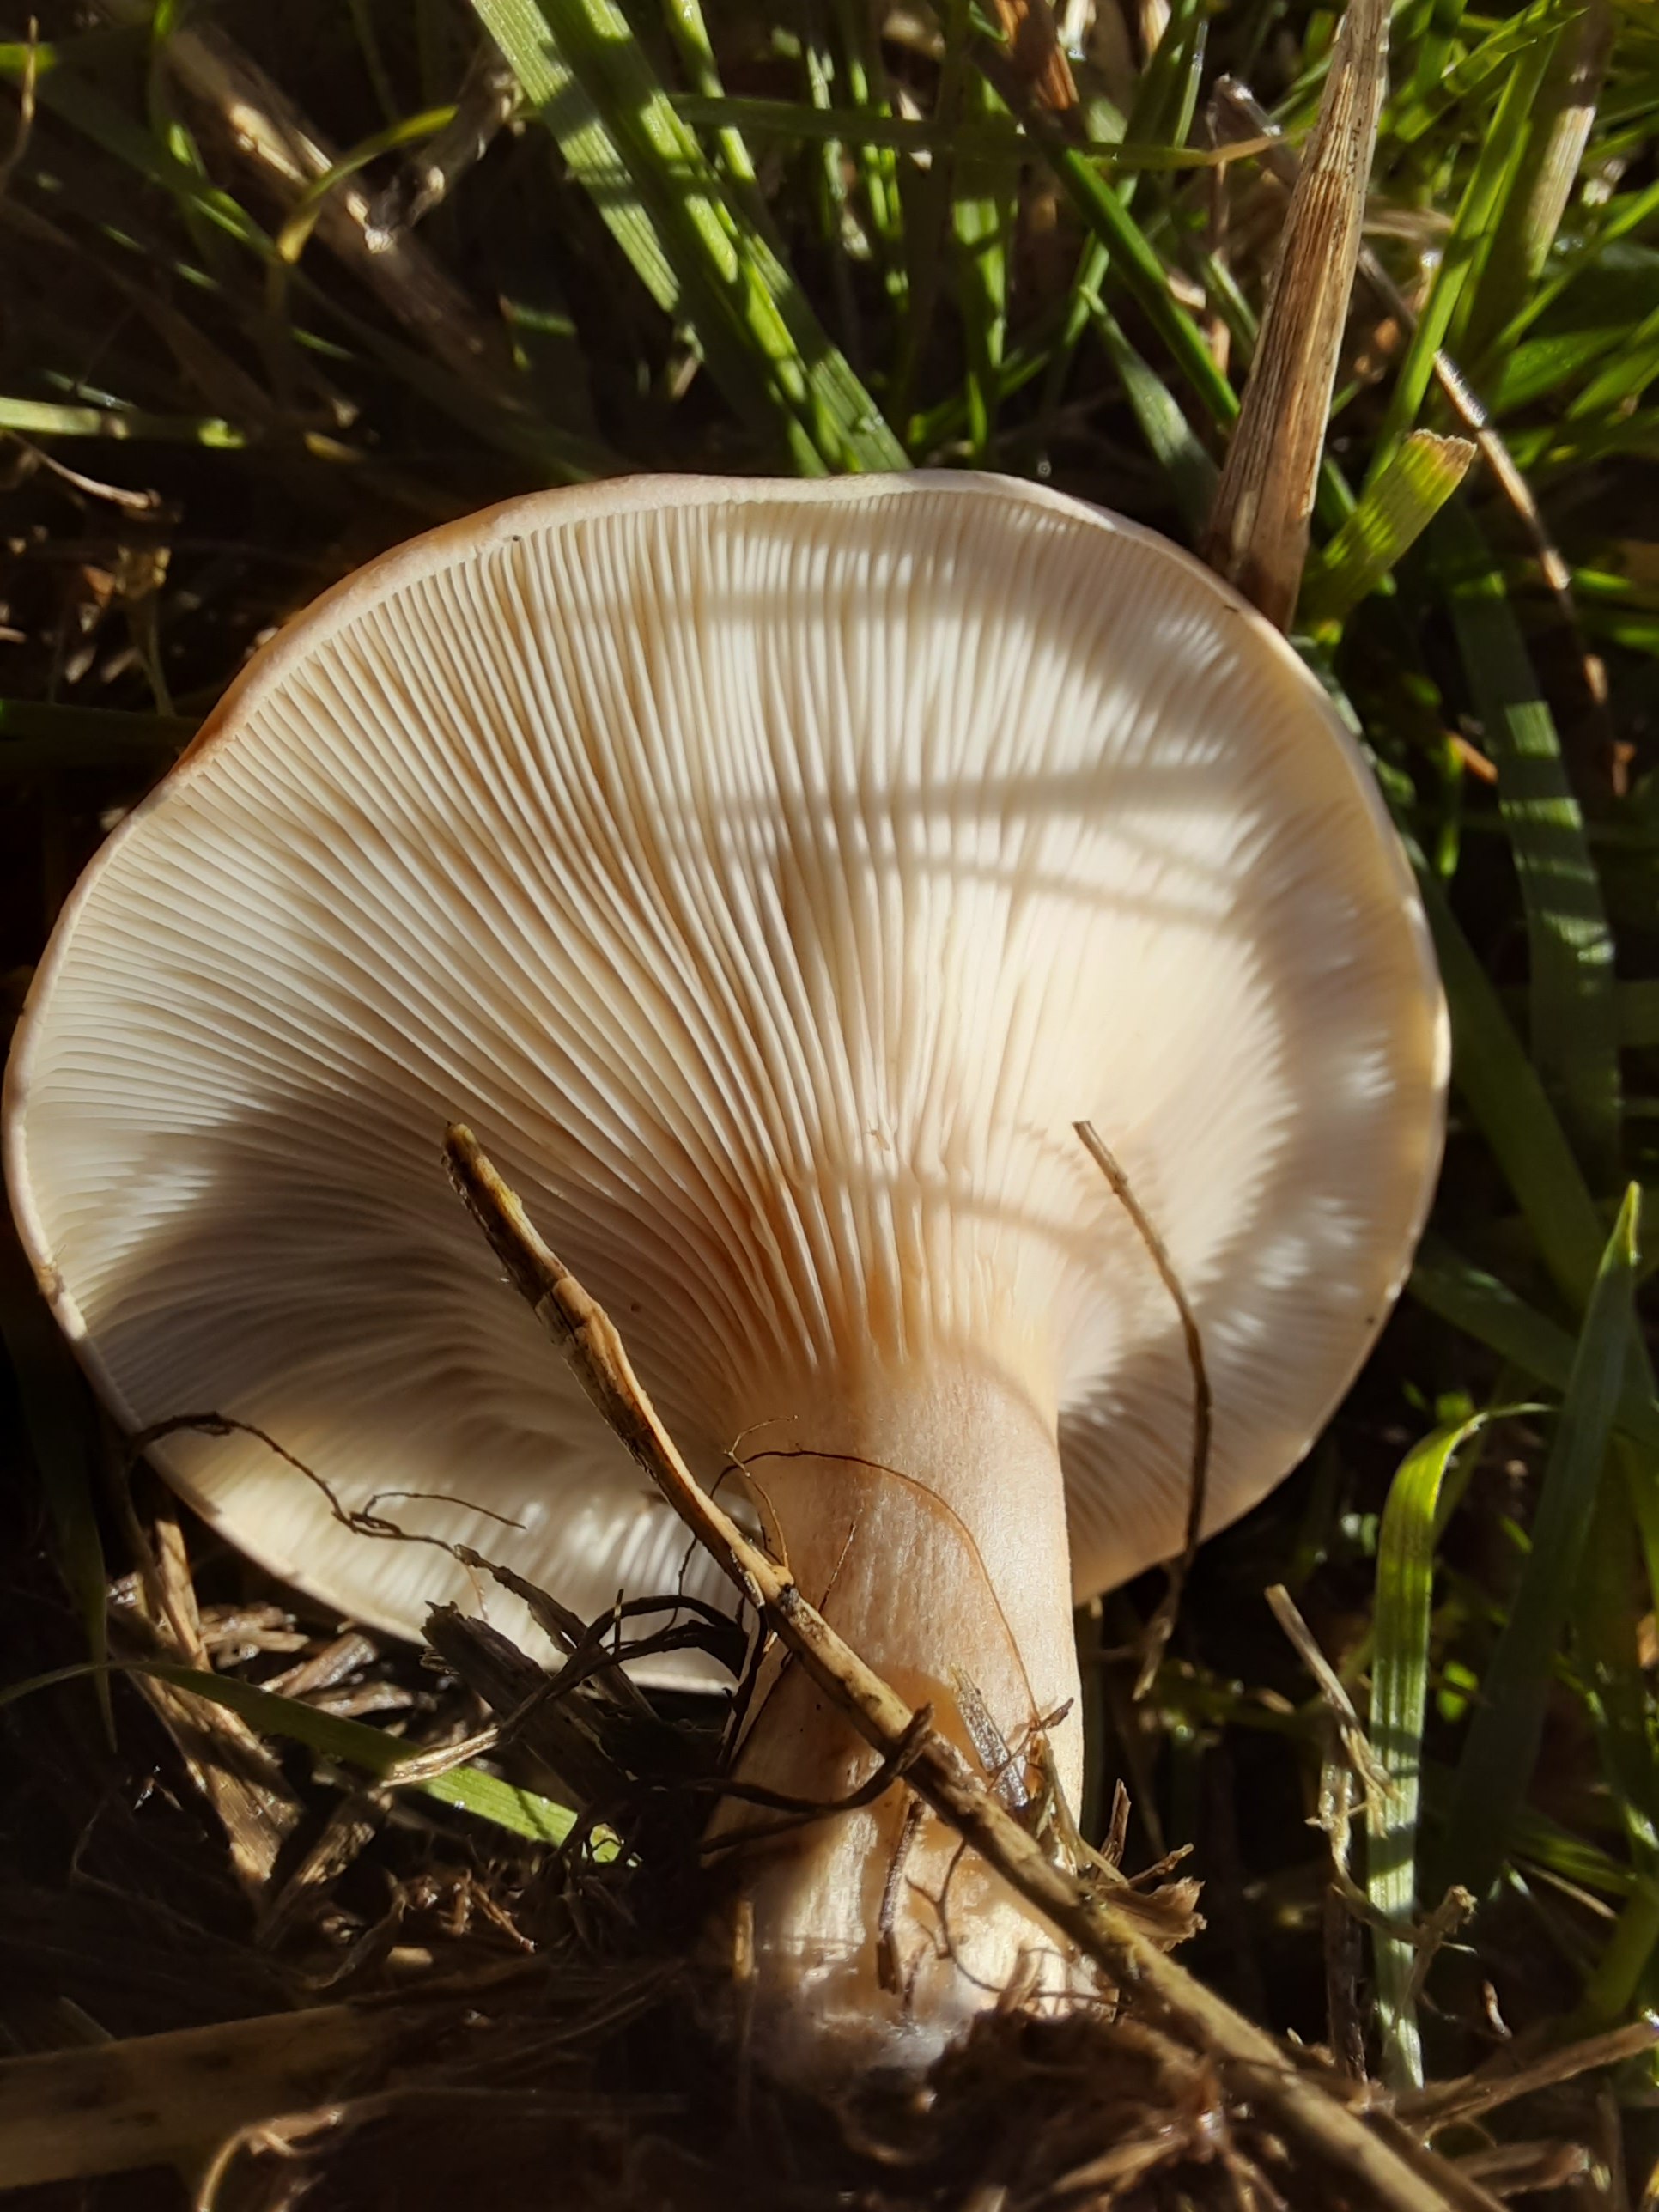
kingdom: Fungi
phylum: Basidiomycota
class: Agaricomycetes
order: Agaricales
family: Tricholomataceae
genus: Paralepista
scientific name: Paralepista flaccida
